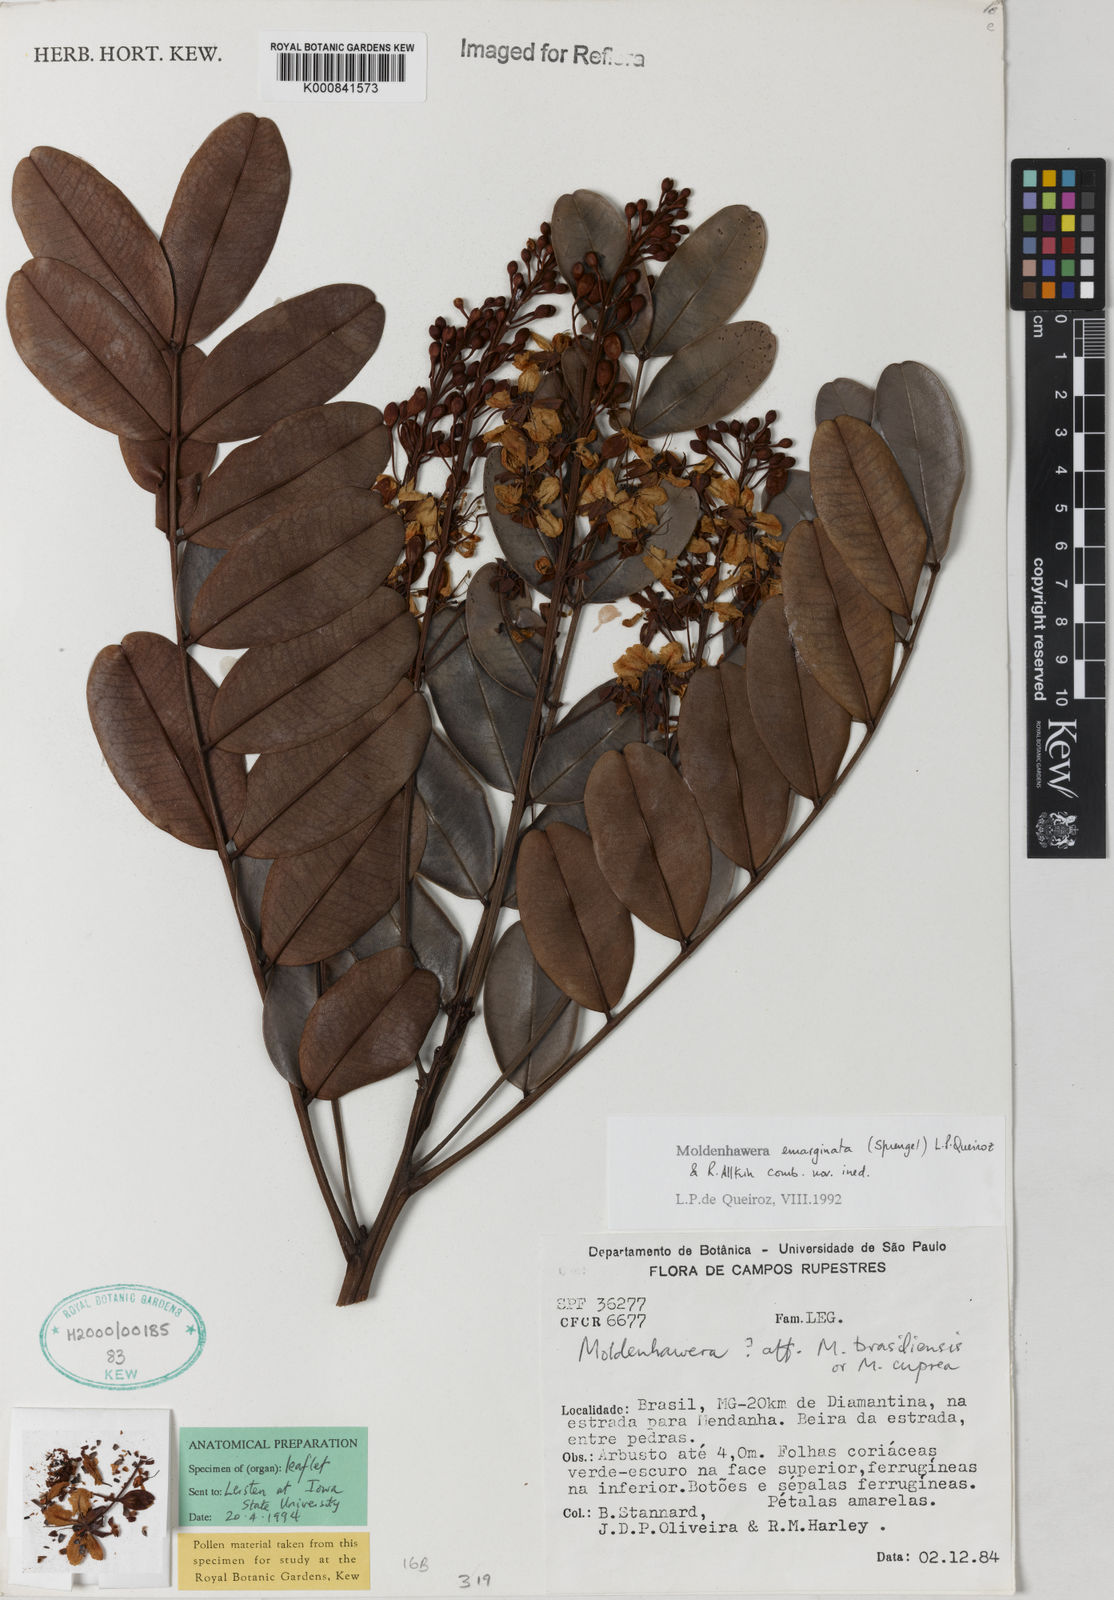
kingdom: Plantae
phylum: Tracheophyta
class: Magnoliopsida
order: Fabales
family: Fabaceae
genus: Moldenhawera
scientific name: Moldenhawera emarginata
